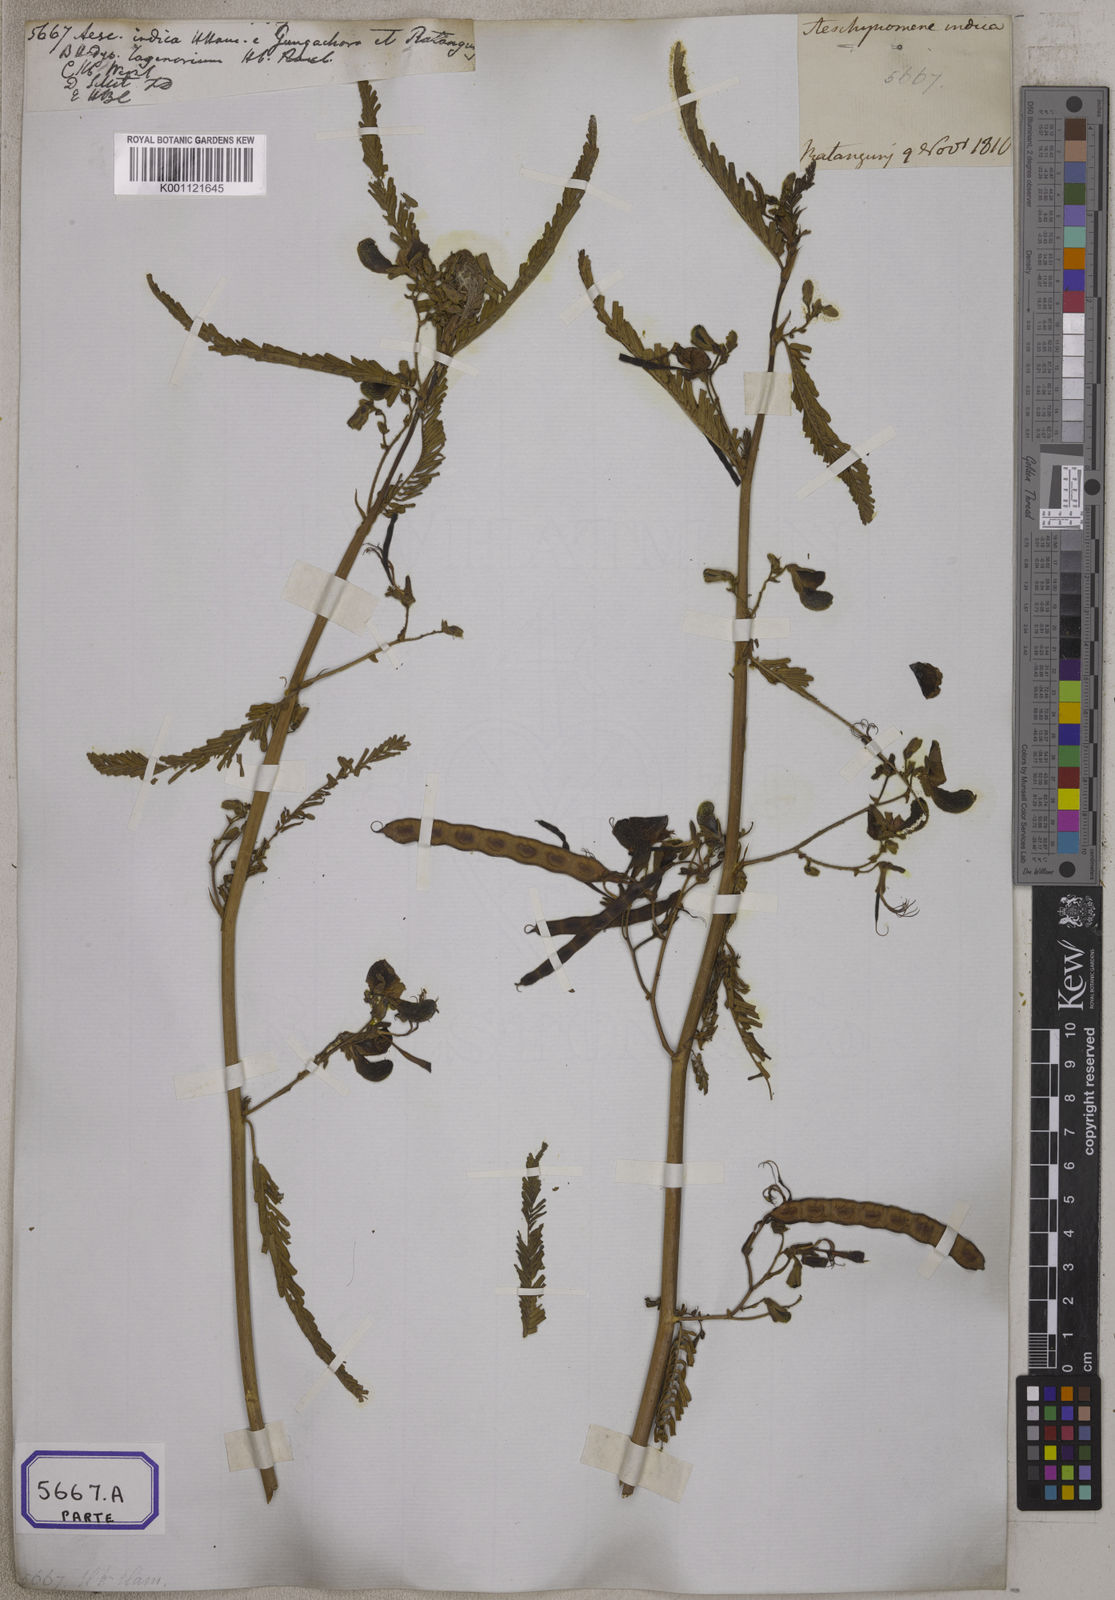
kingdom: Plantae
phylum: Tracheophyta
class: Magnoliopsida
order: Fabales
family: Fabaceae
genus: Aeschynomene
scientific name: Aeschynomene aspera
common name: Pith plant
